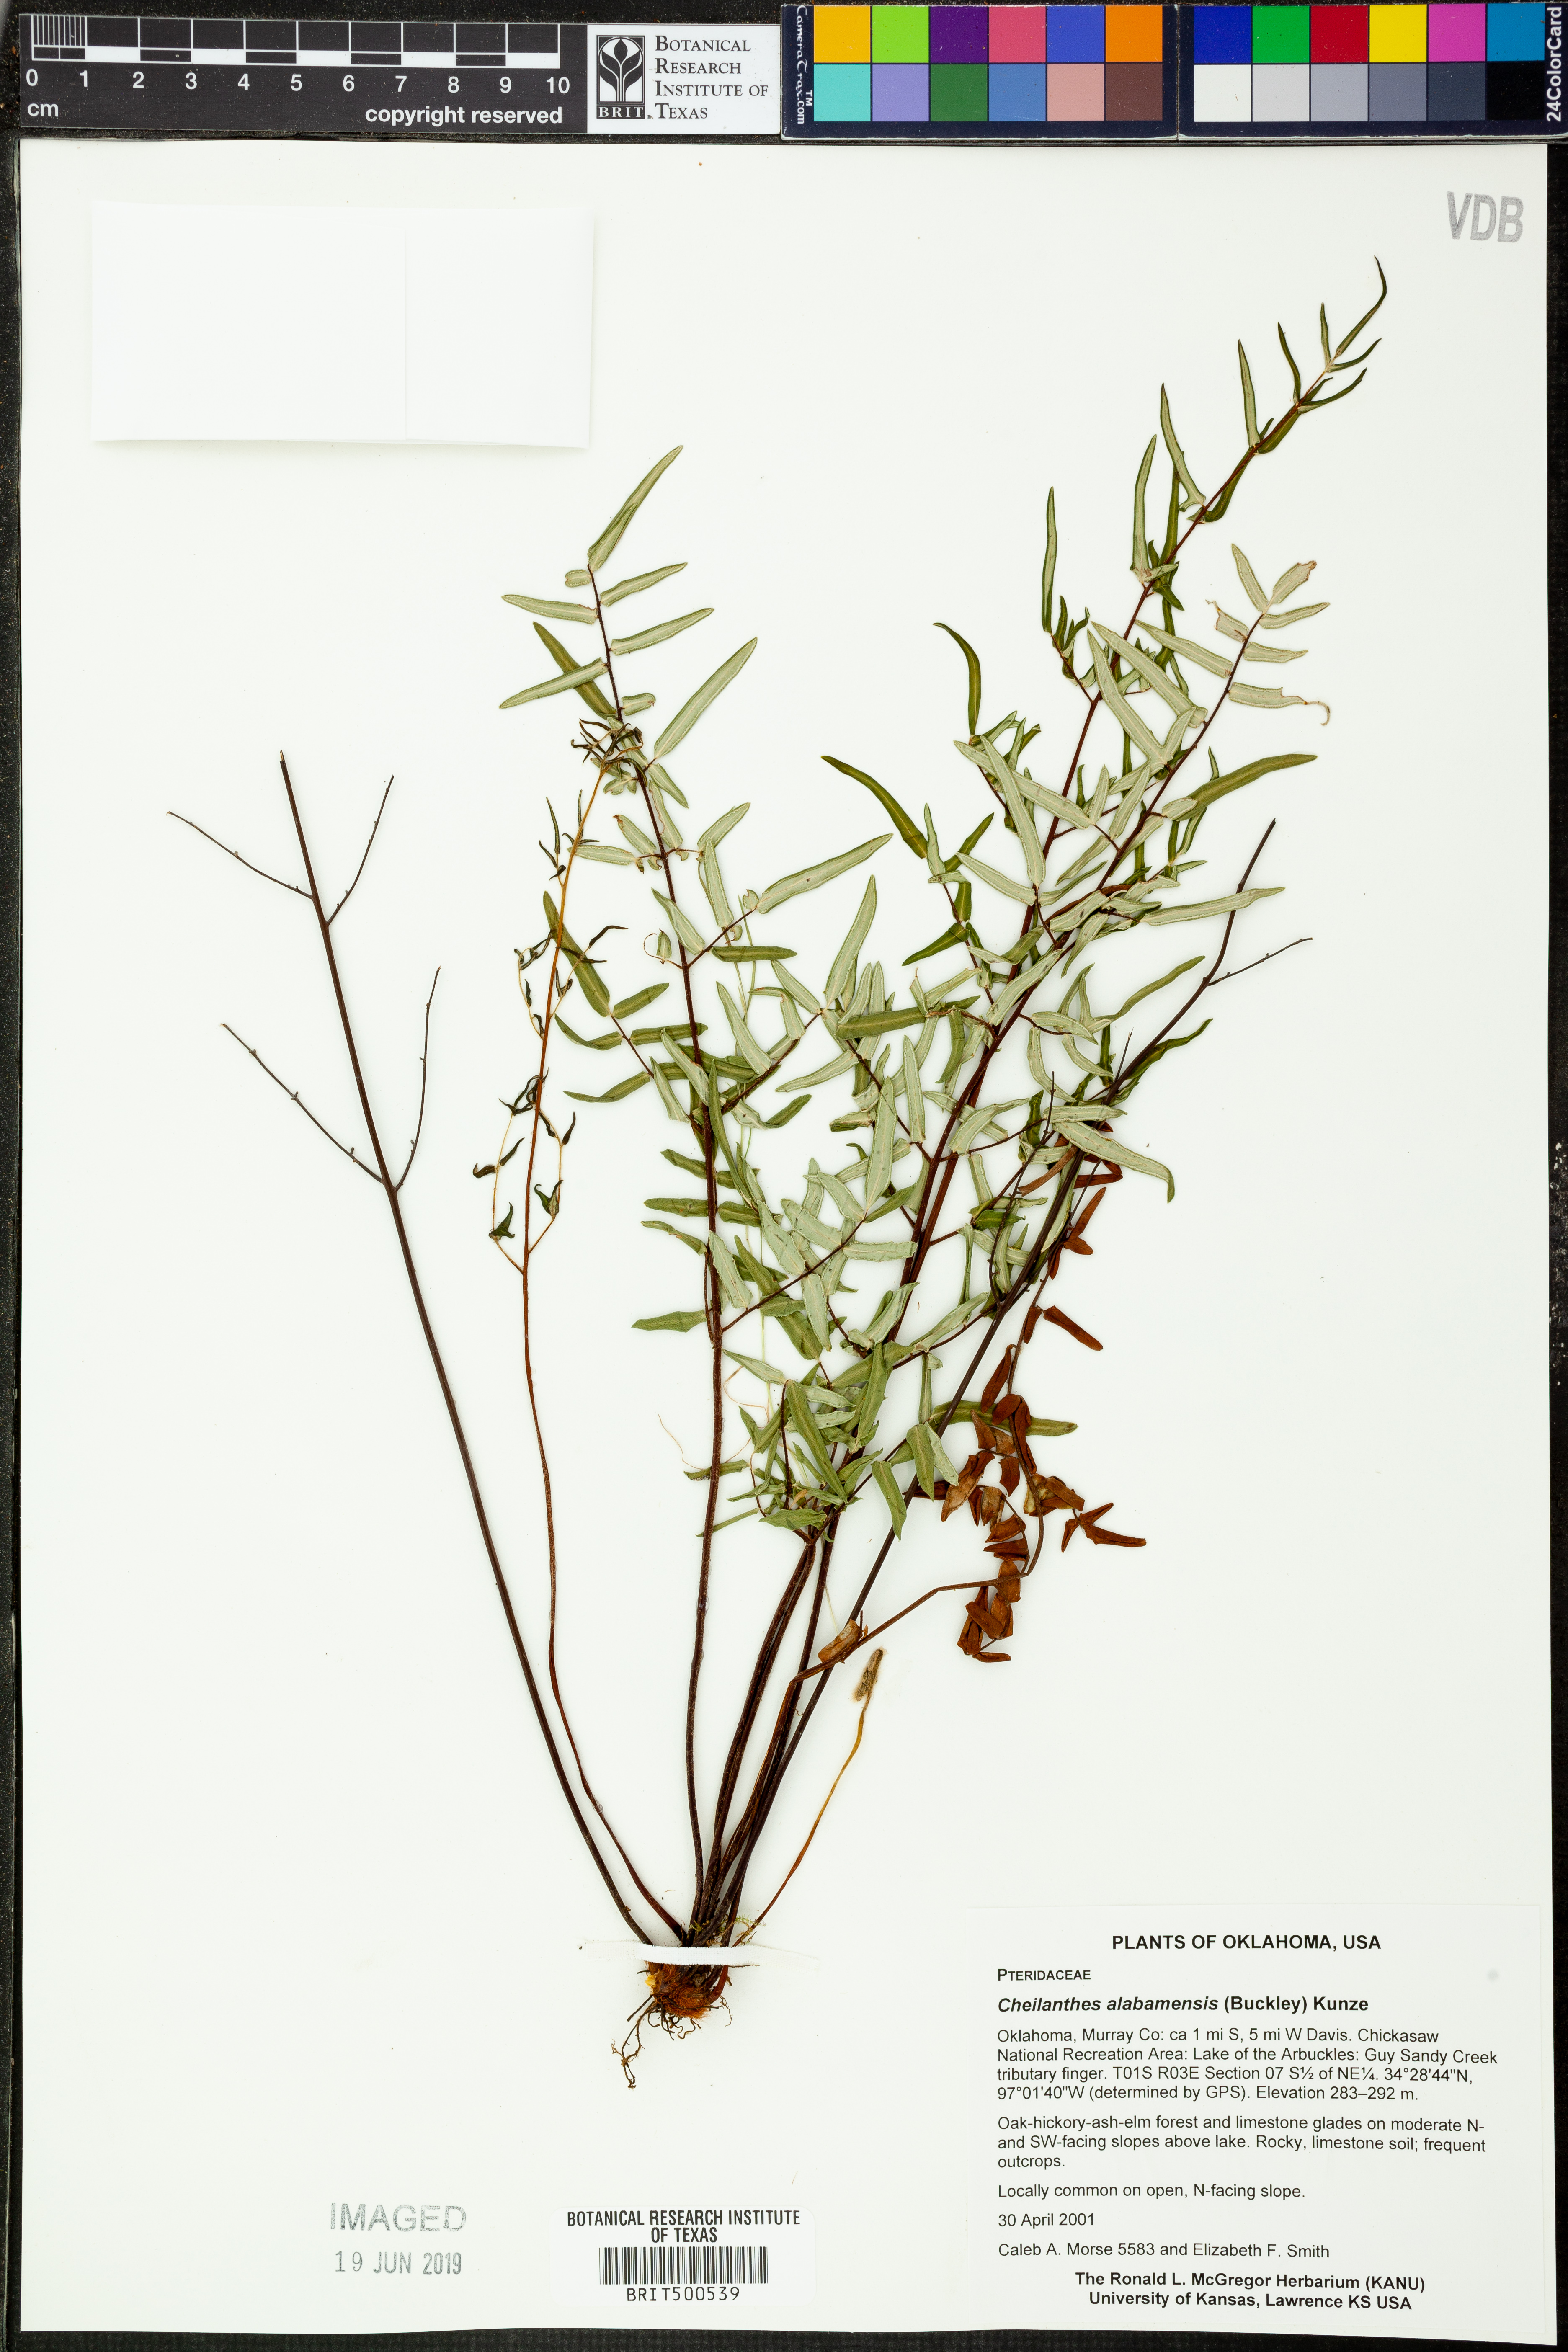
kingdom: Plantae
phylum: Tracheophyta
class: Polypodiopsida
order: Polypodiales
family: Pteridaceae
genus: Pellaea
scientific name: Pellaea atropurpurea
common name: Hairy cliffbrake
